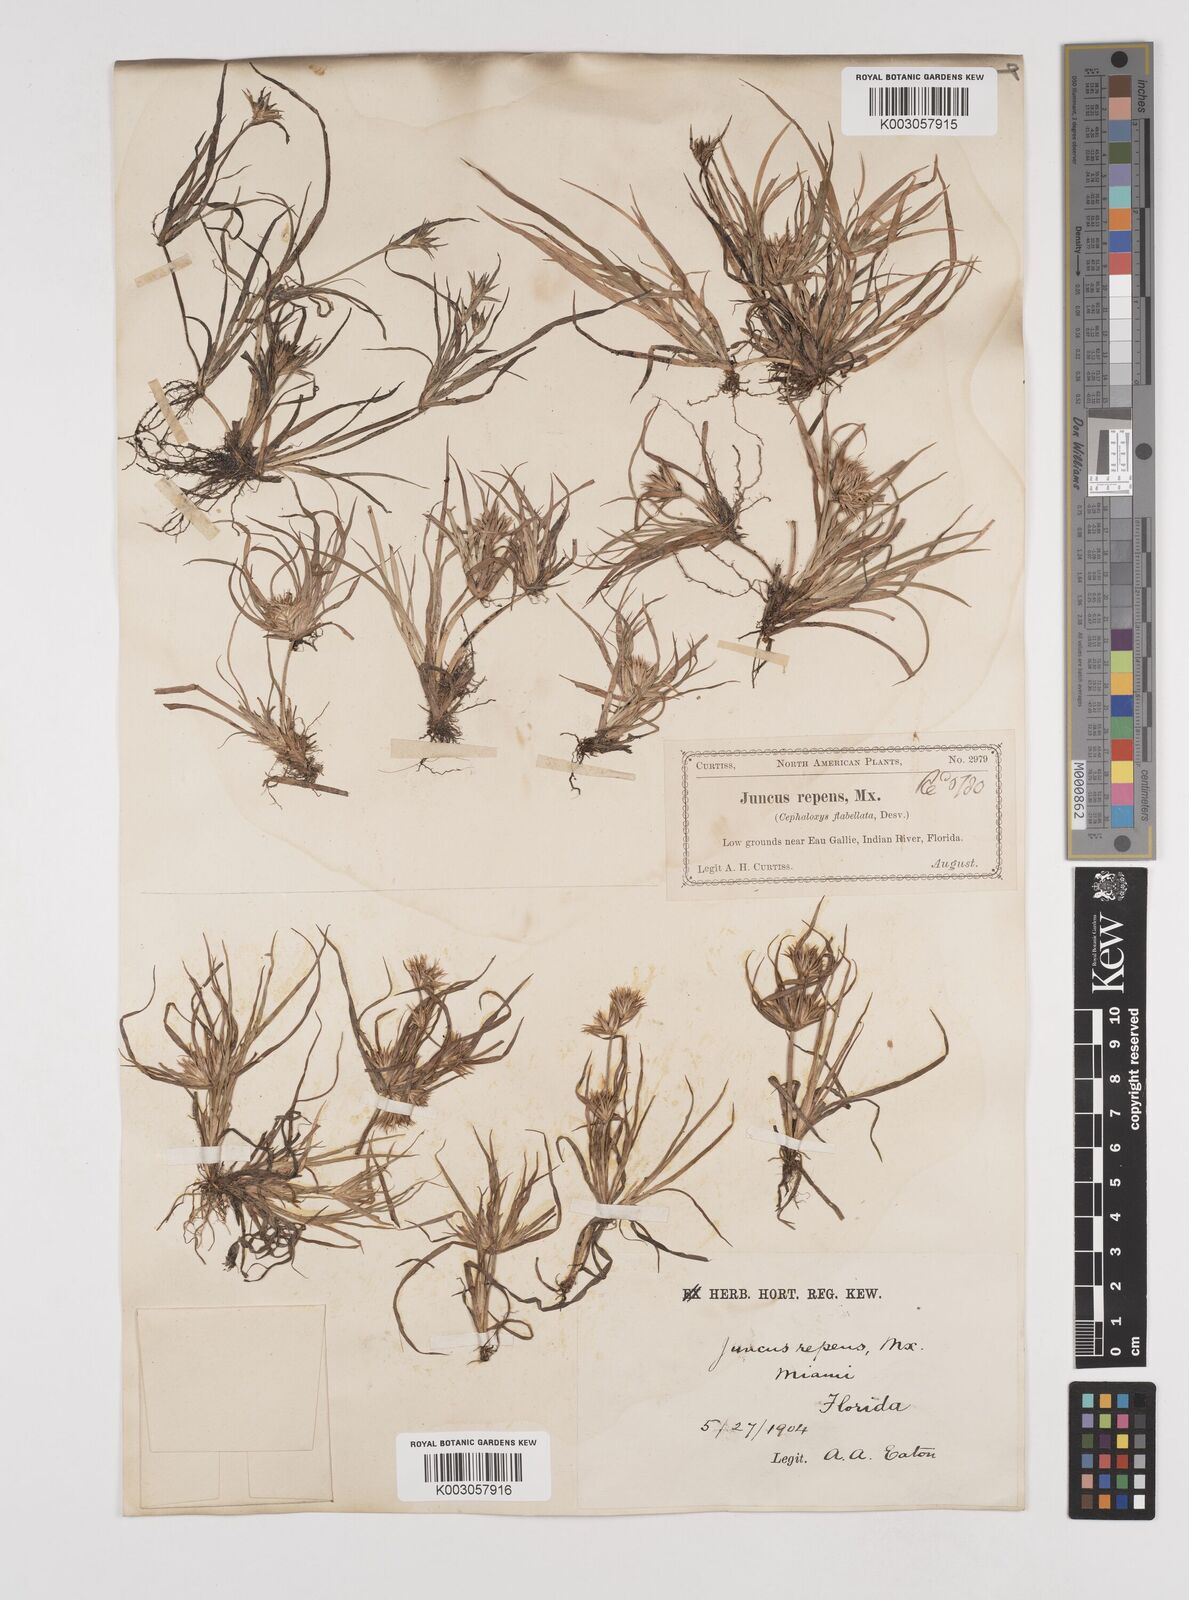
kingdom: Plantae
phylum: Tracheophyta
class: Liliopsida
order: Poales
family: Juncaceae
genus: Juncus
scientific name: Juncus repens
